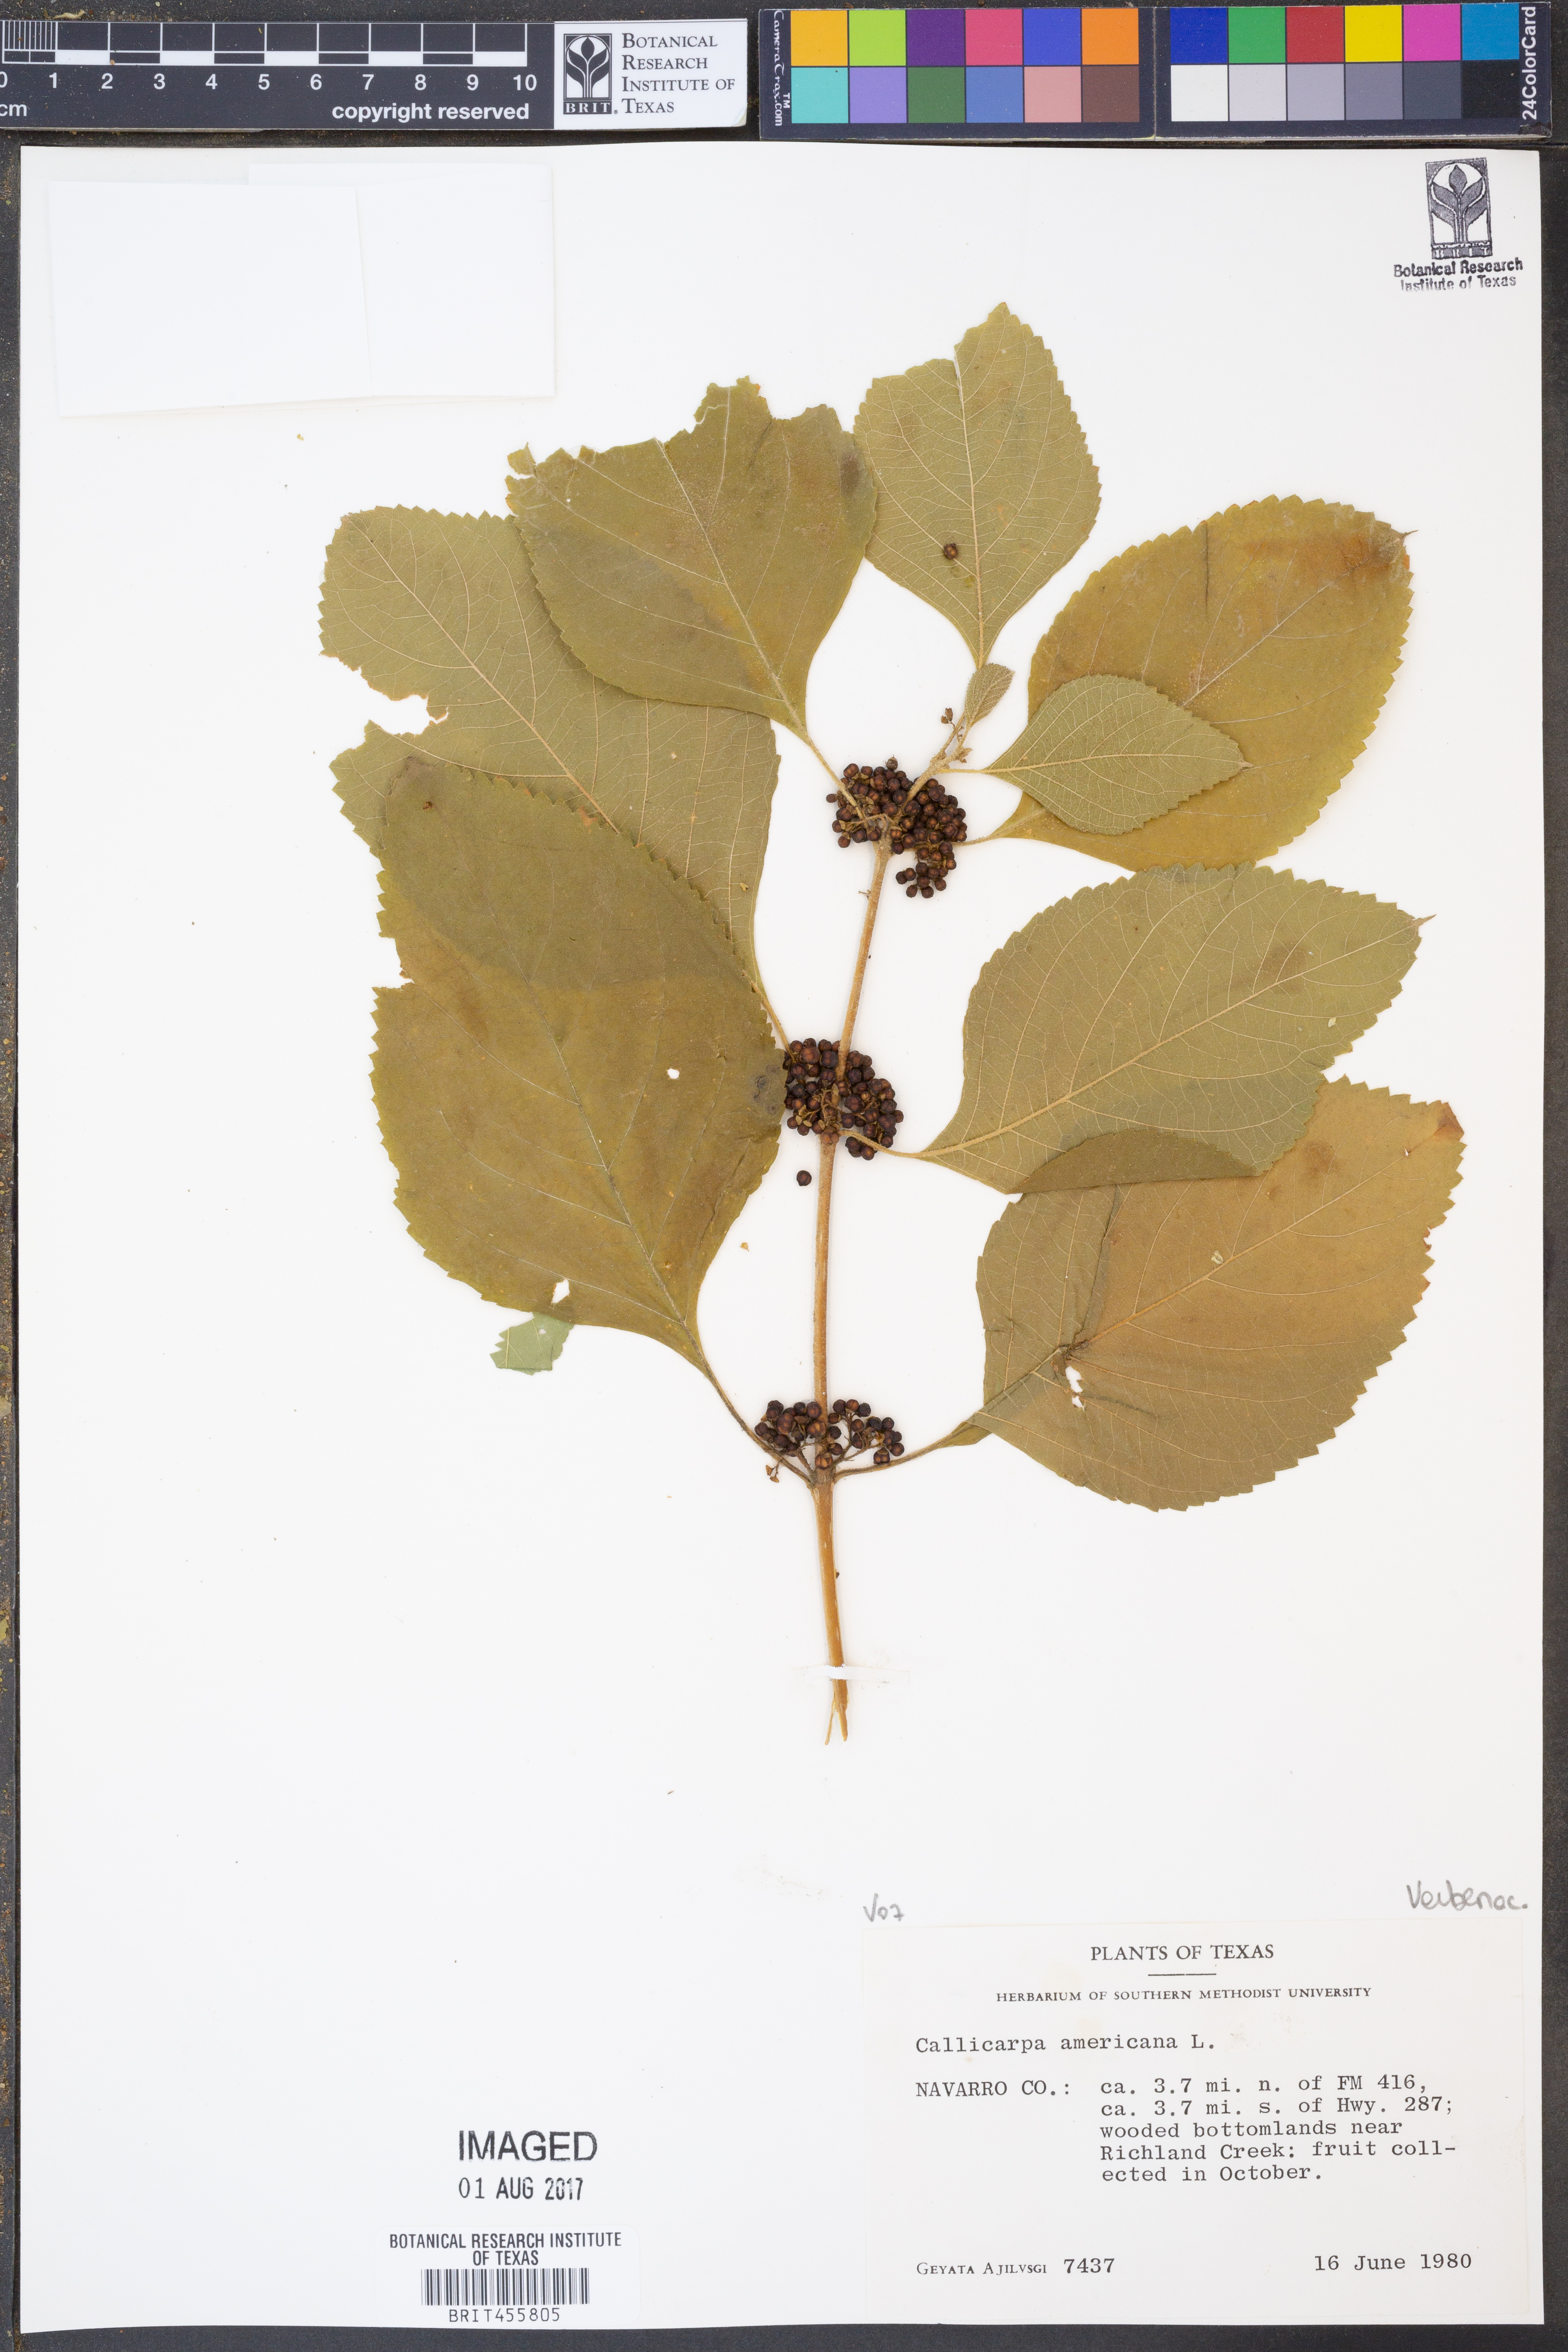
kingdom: Plantae
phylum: Tracheophyta
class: Magnoliopsida
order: Lamiales
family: Lamiaceae
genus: Callicarpa
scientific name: Callicarpa americana
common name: American beautyberry
